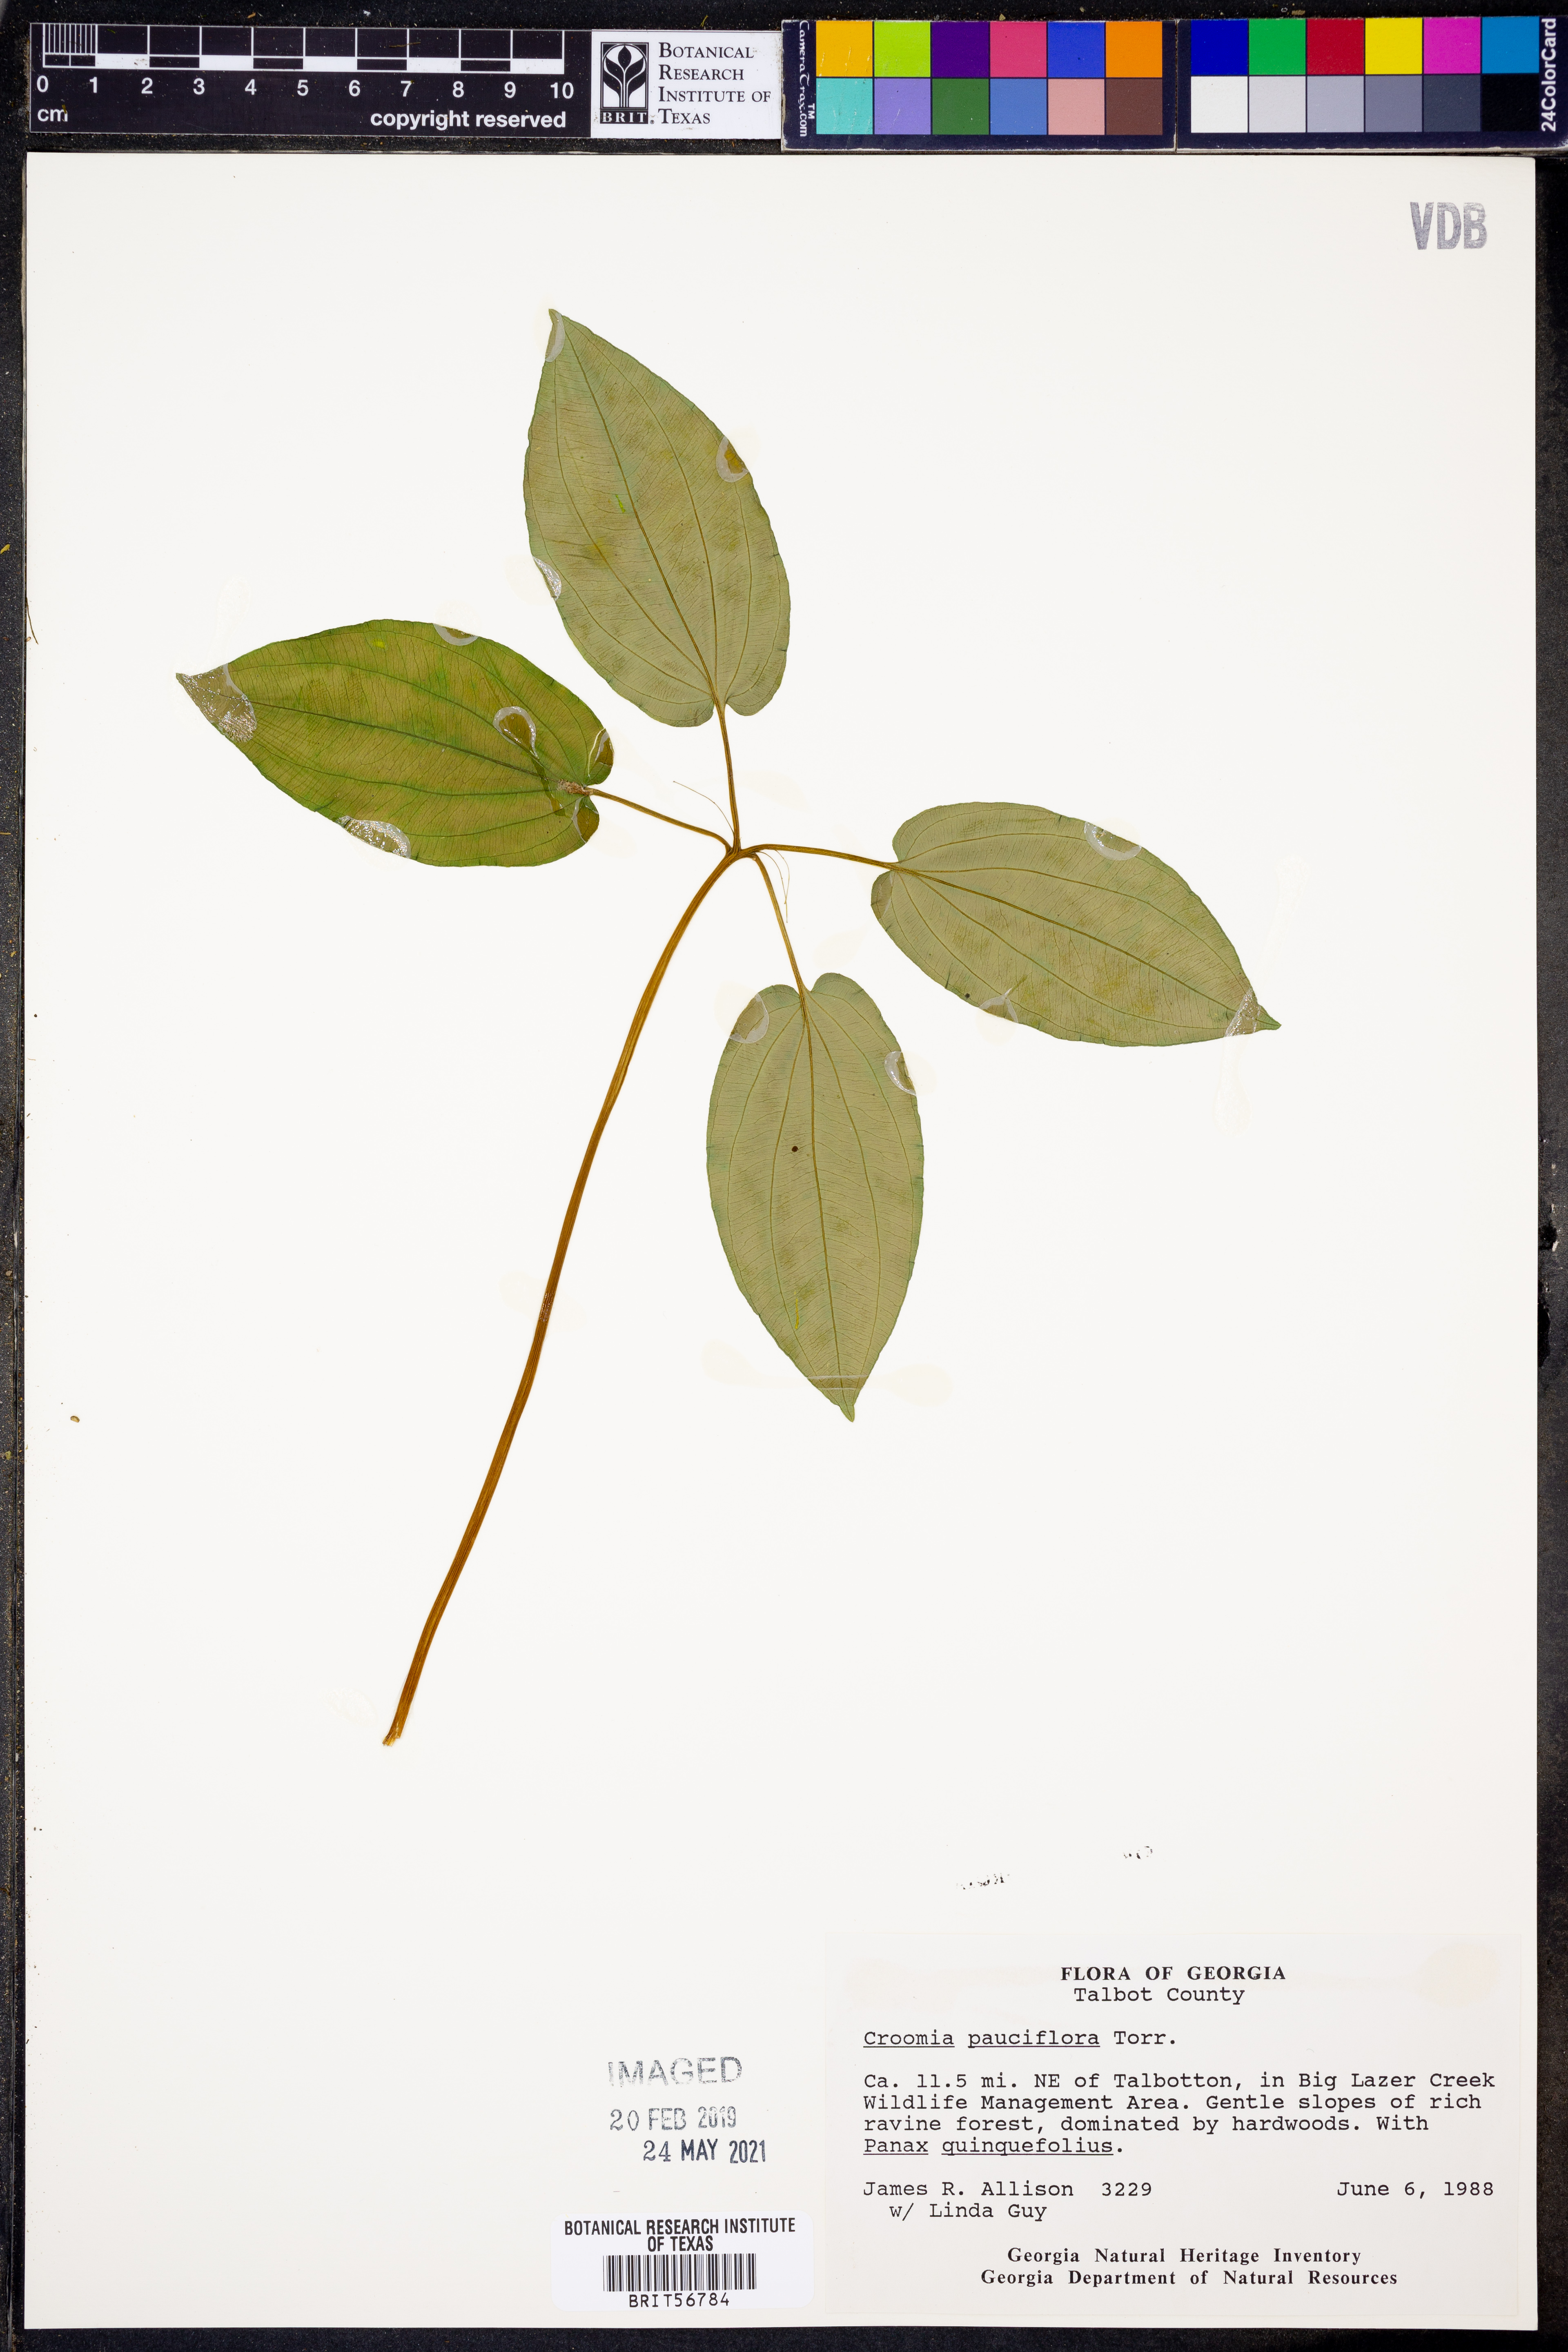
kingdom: Plantae
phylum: Tracheophyta
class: Liliopsida
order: Pandanales
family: Stemonaceae
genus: Croomia
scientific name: Croomia pauciflora
